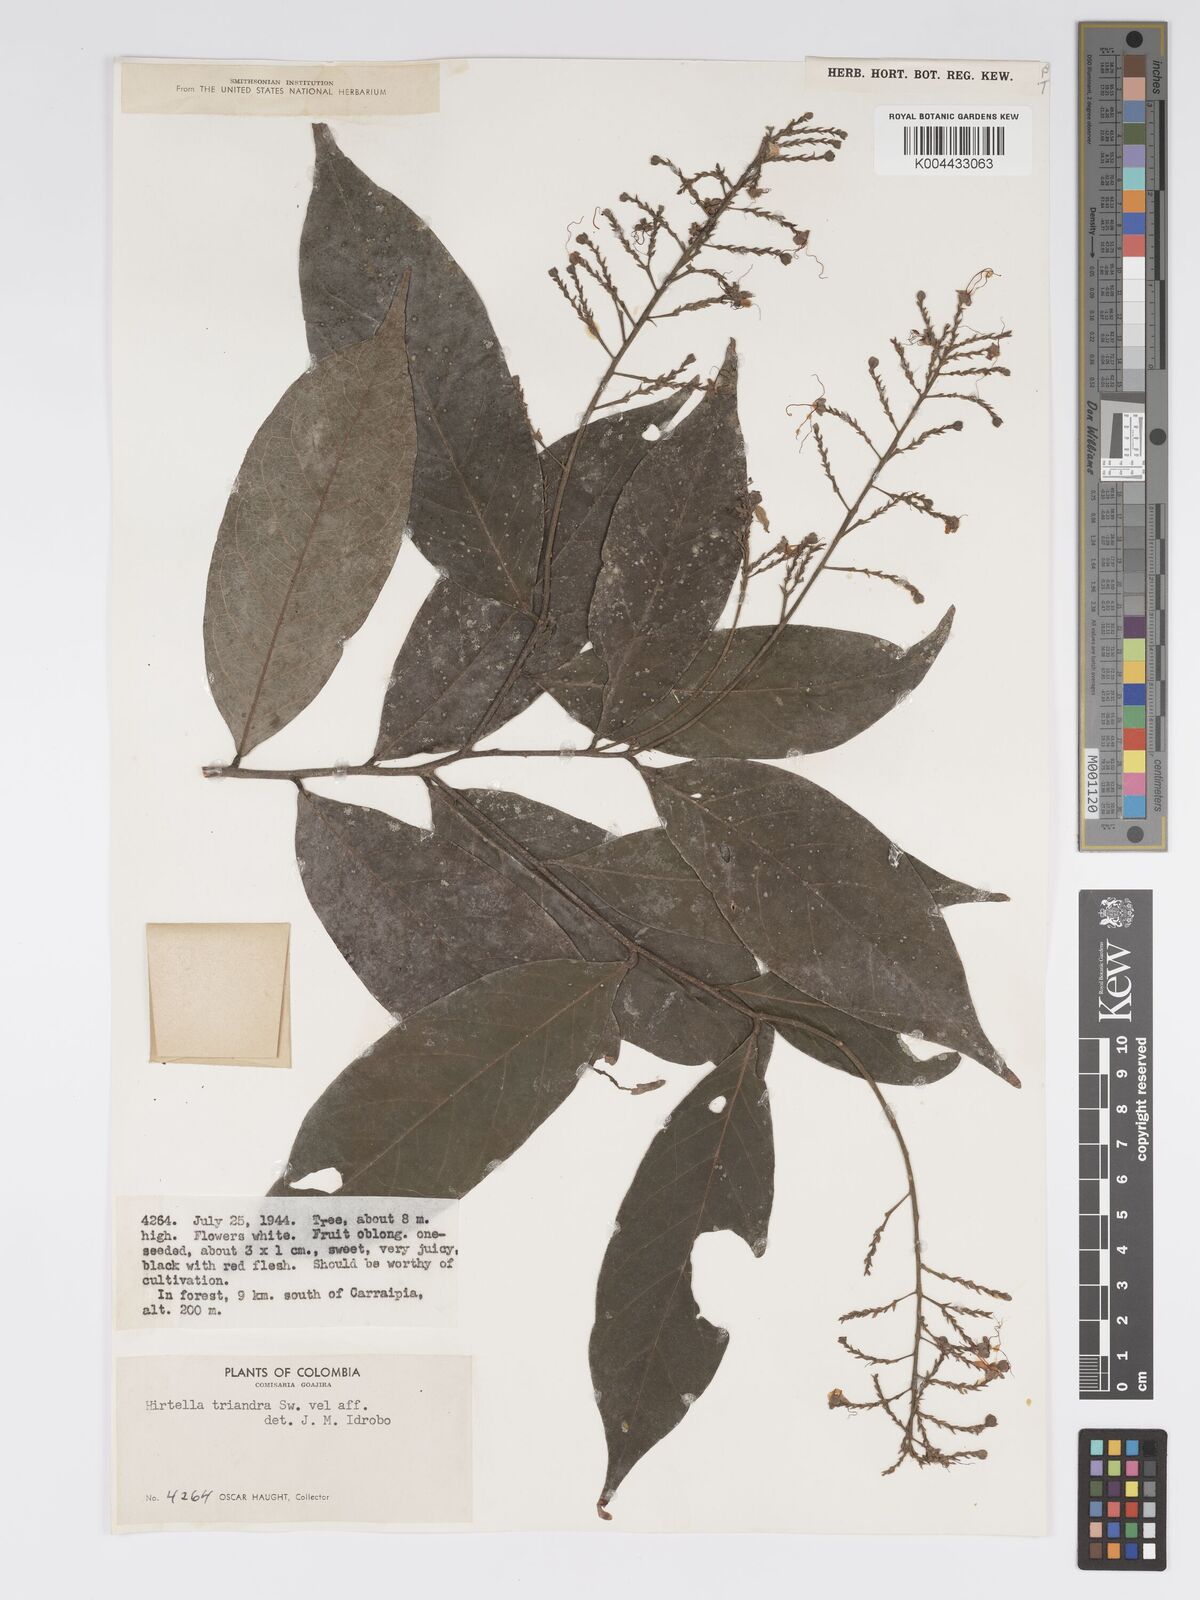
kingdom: Plantae
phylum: Tracheophyta
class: Magnoliopsida
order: Malpighiales
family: Chrysobalanaceae
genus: Hirtella
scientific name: Hirtella triandra
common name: Hairy plum
